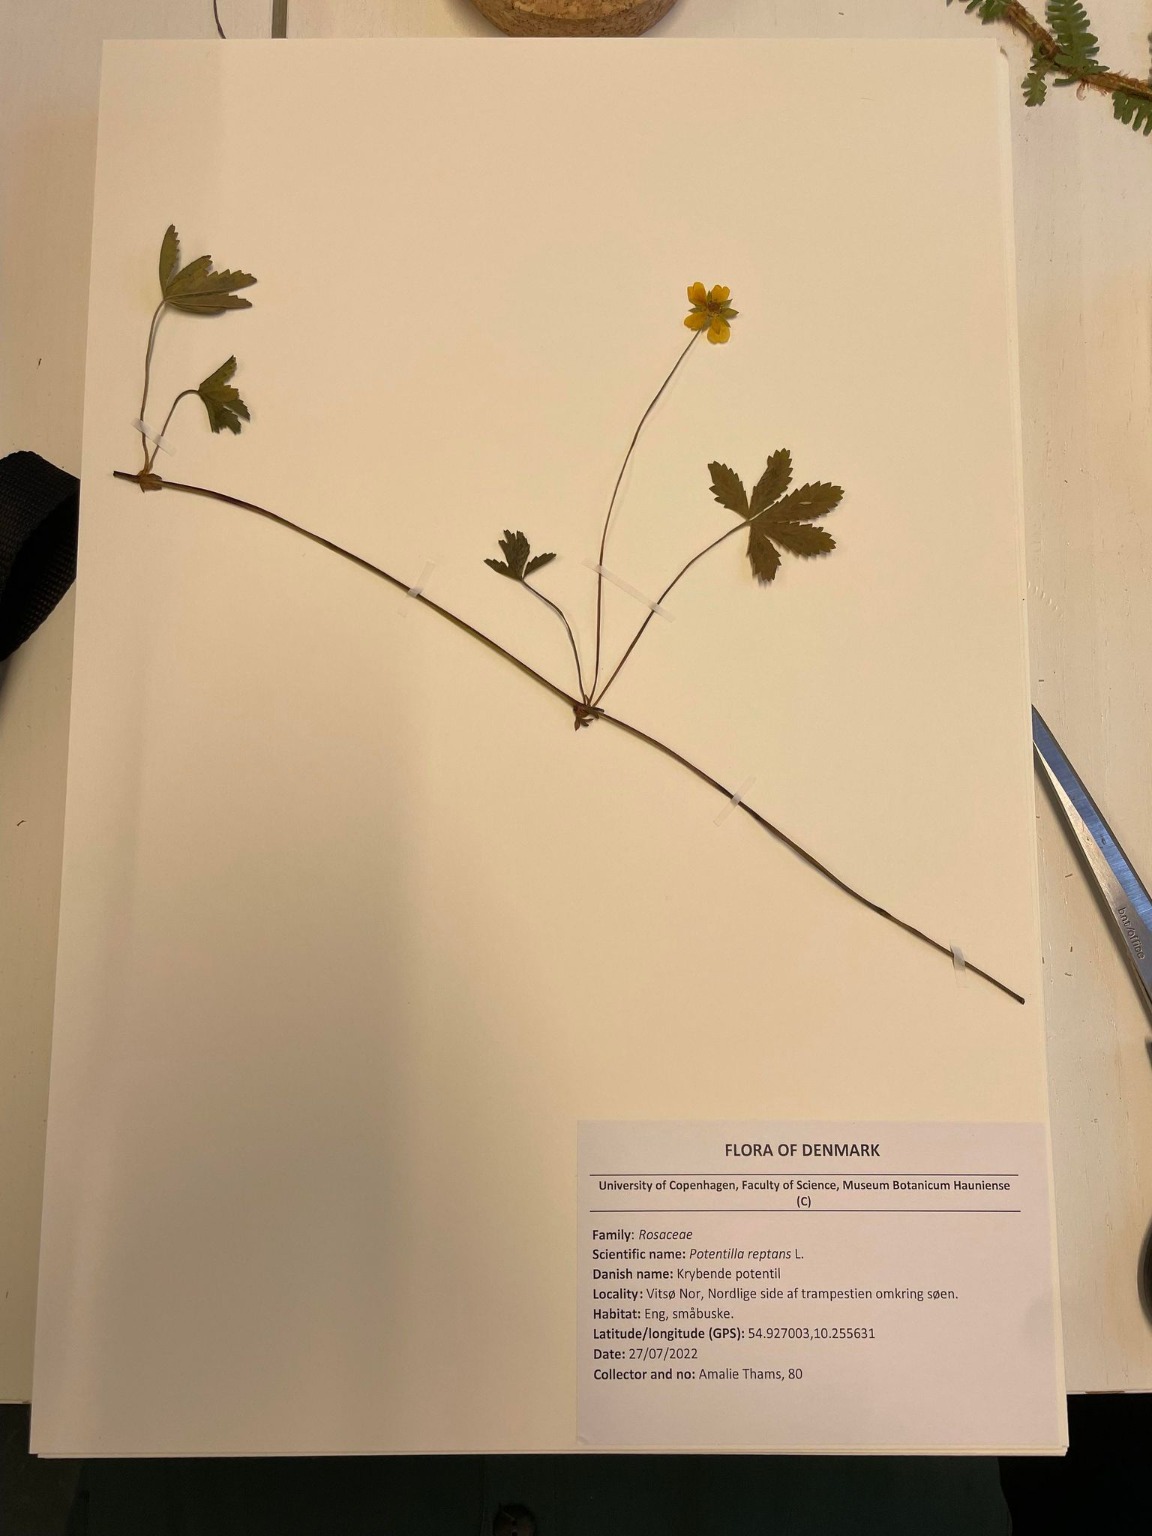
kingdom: Plantae
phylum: Tracheophyta
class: Magnoliopsida
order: Rosales
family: Rosaceae
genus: Potentilla
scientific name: Potentilla reptans
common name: Krybende potentil
